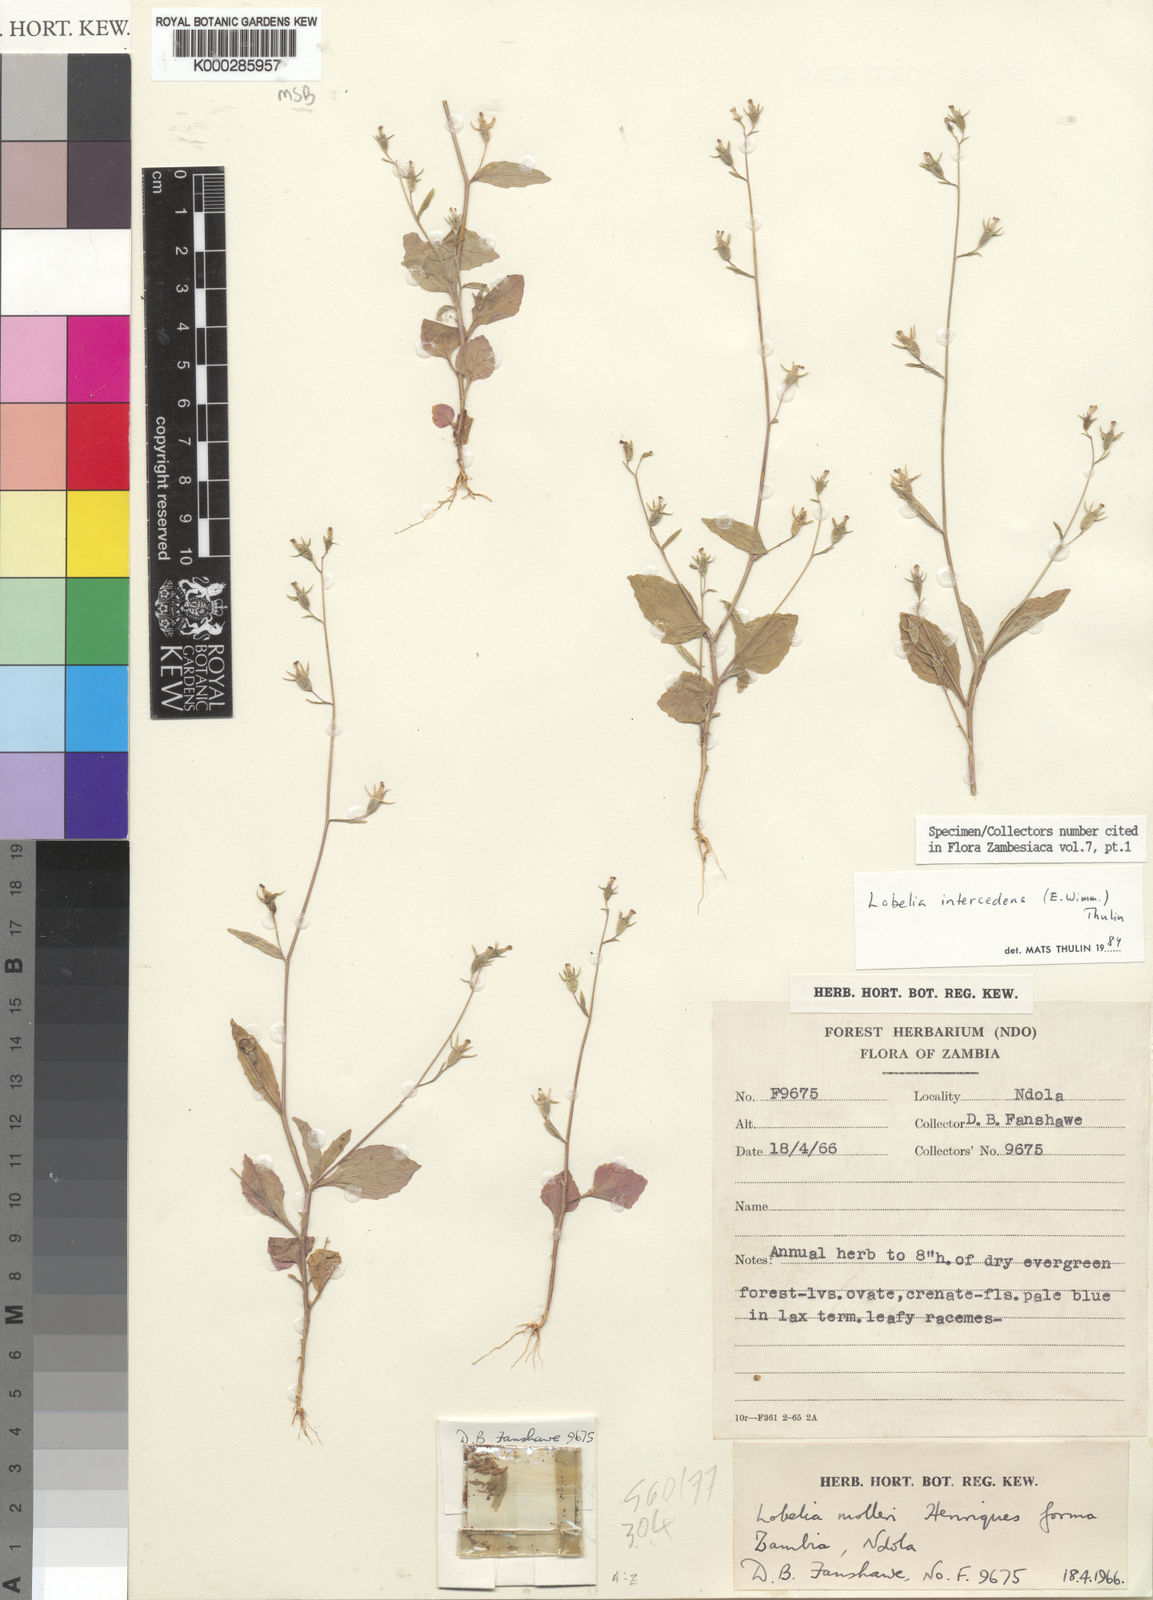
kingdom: Plantae
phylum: Tracheophyta
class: Magnoliopsida
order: Asterales
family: Campanulaceae
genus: Lobelia
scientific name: Lobelia intercedens
